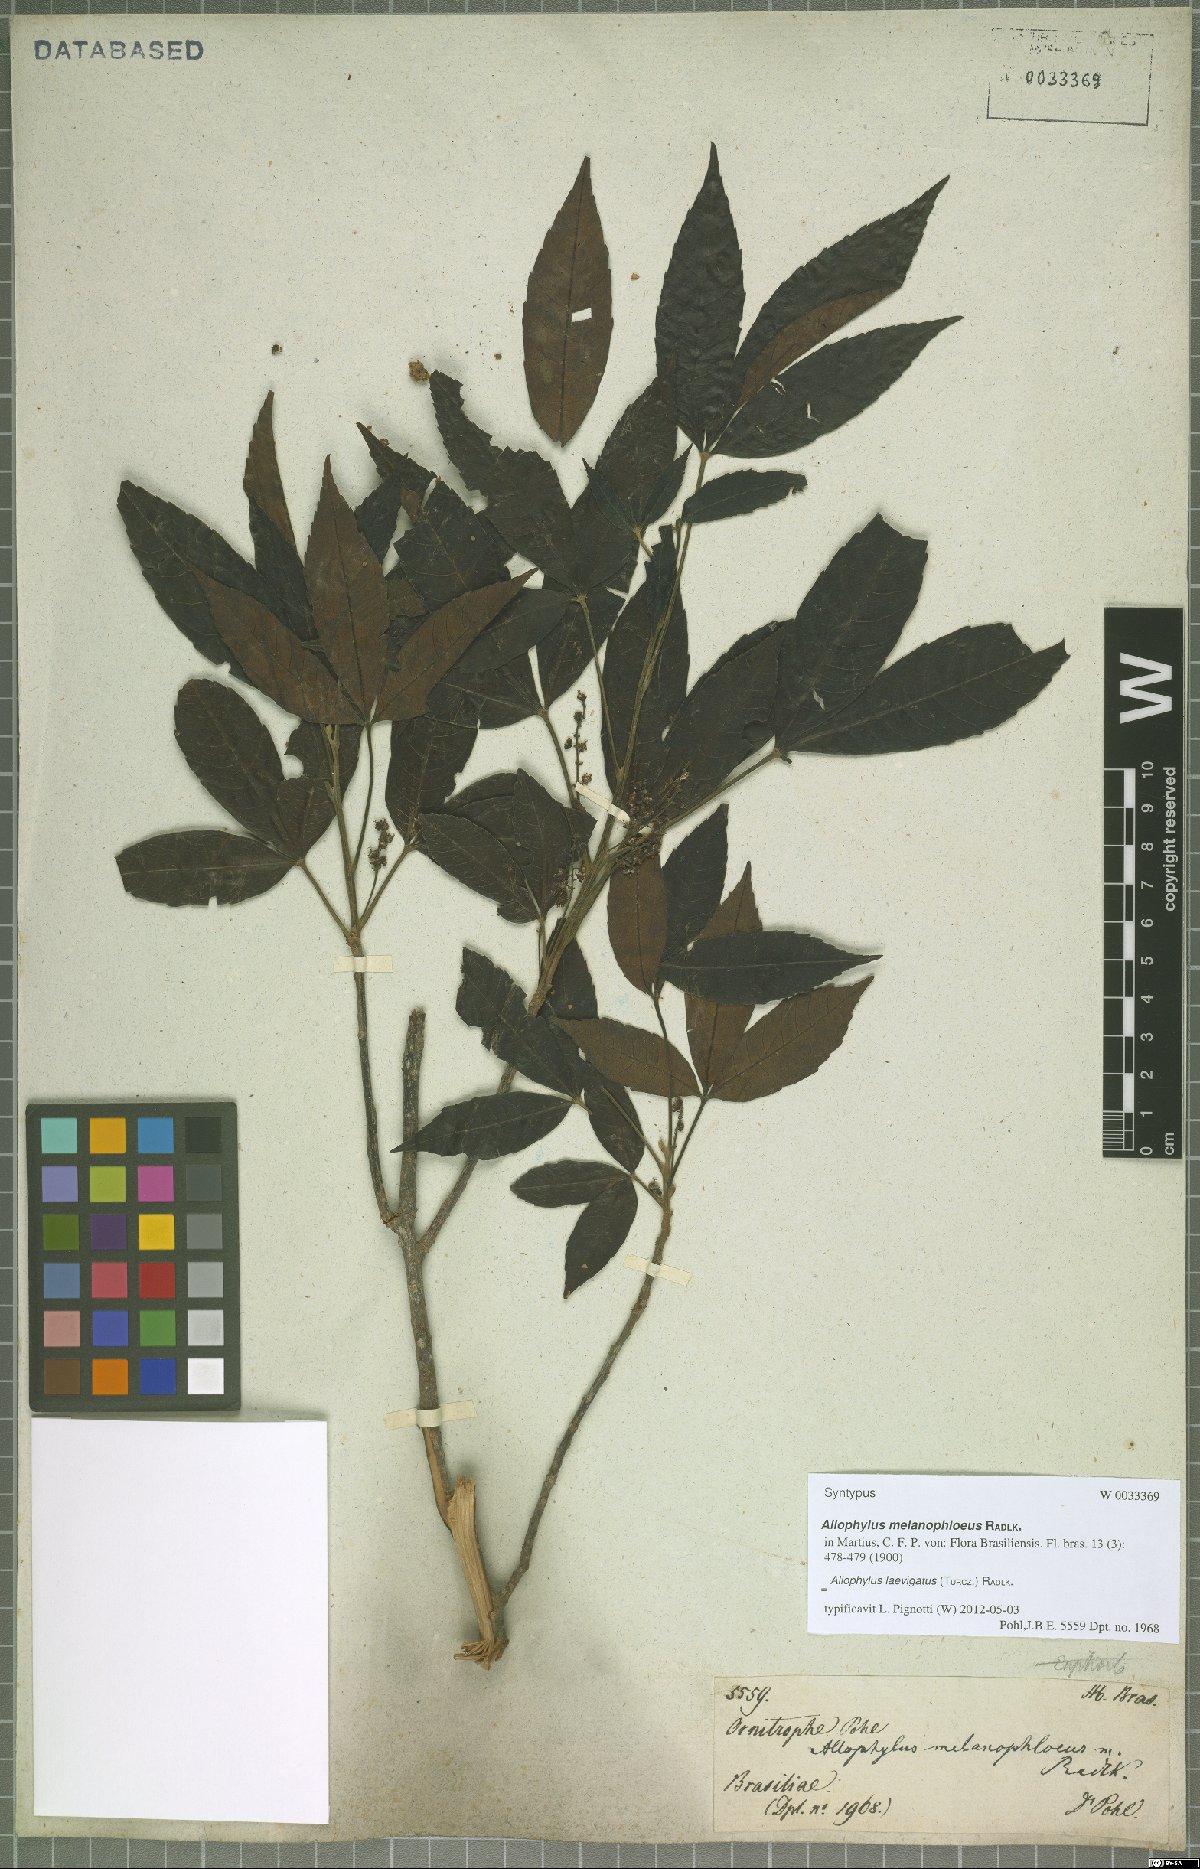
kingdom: Plantae
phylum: Tracheophyta
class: Magnoliopsida
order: Sapindales
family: Sapindaceae
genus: Allophylus
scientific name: Allophylus laevigatus
